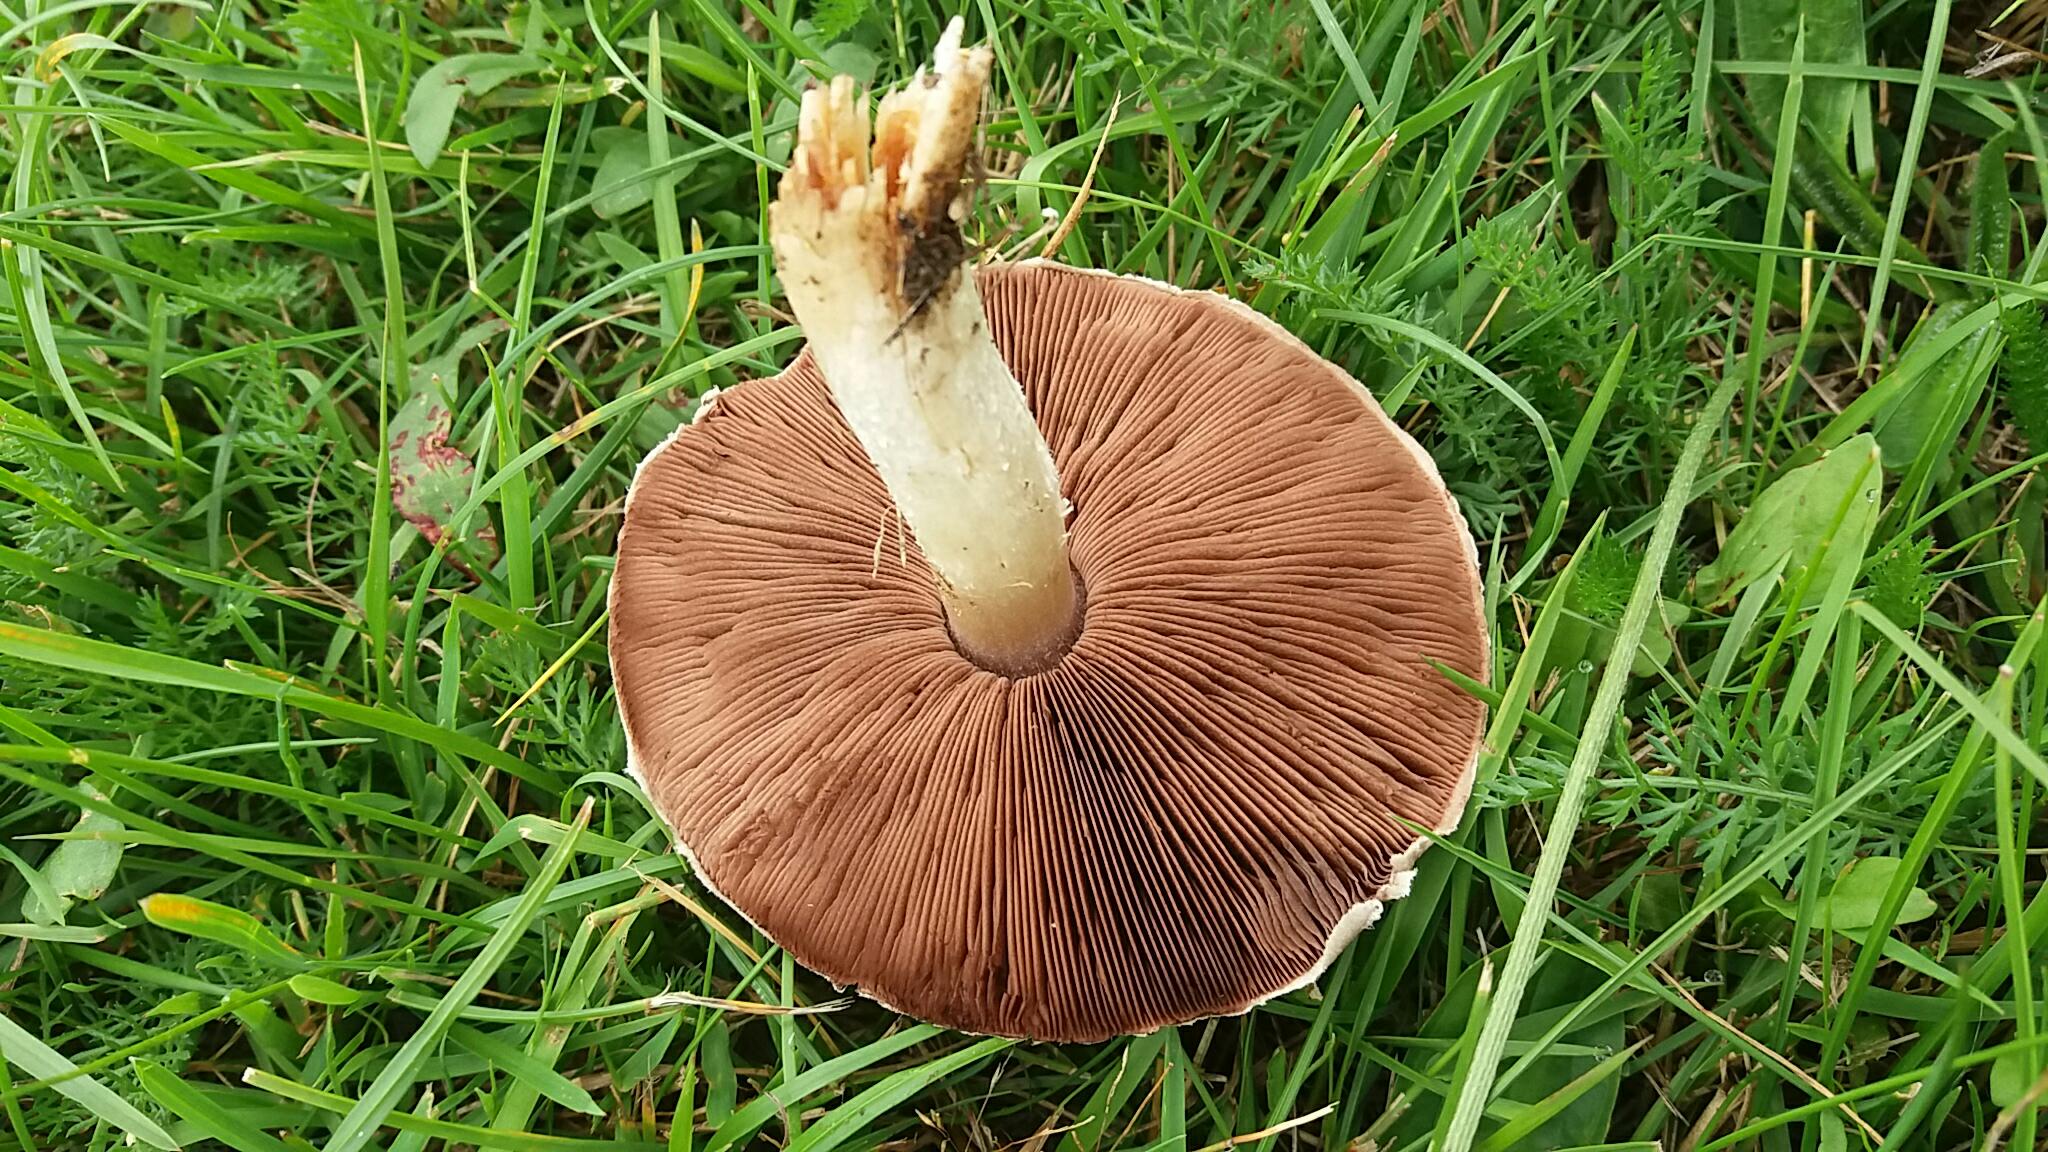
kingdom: Fungi
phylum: Basidiomycota
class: Agaricomycetes
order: Agaricales
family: Agaricaceae
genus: Agaricus
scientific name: Agaricus campestris
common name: mark-champignon
